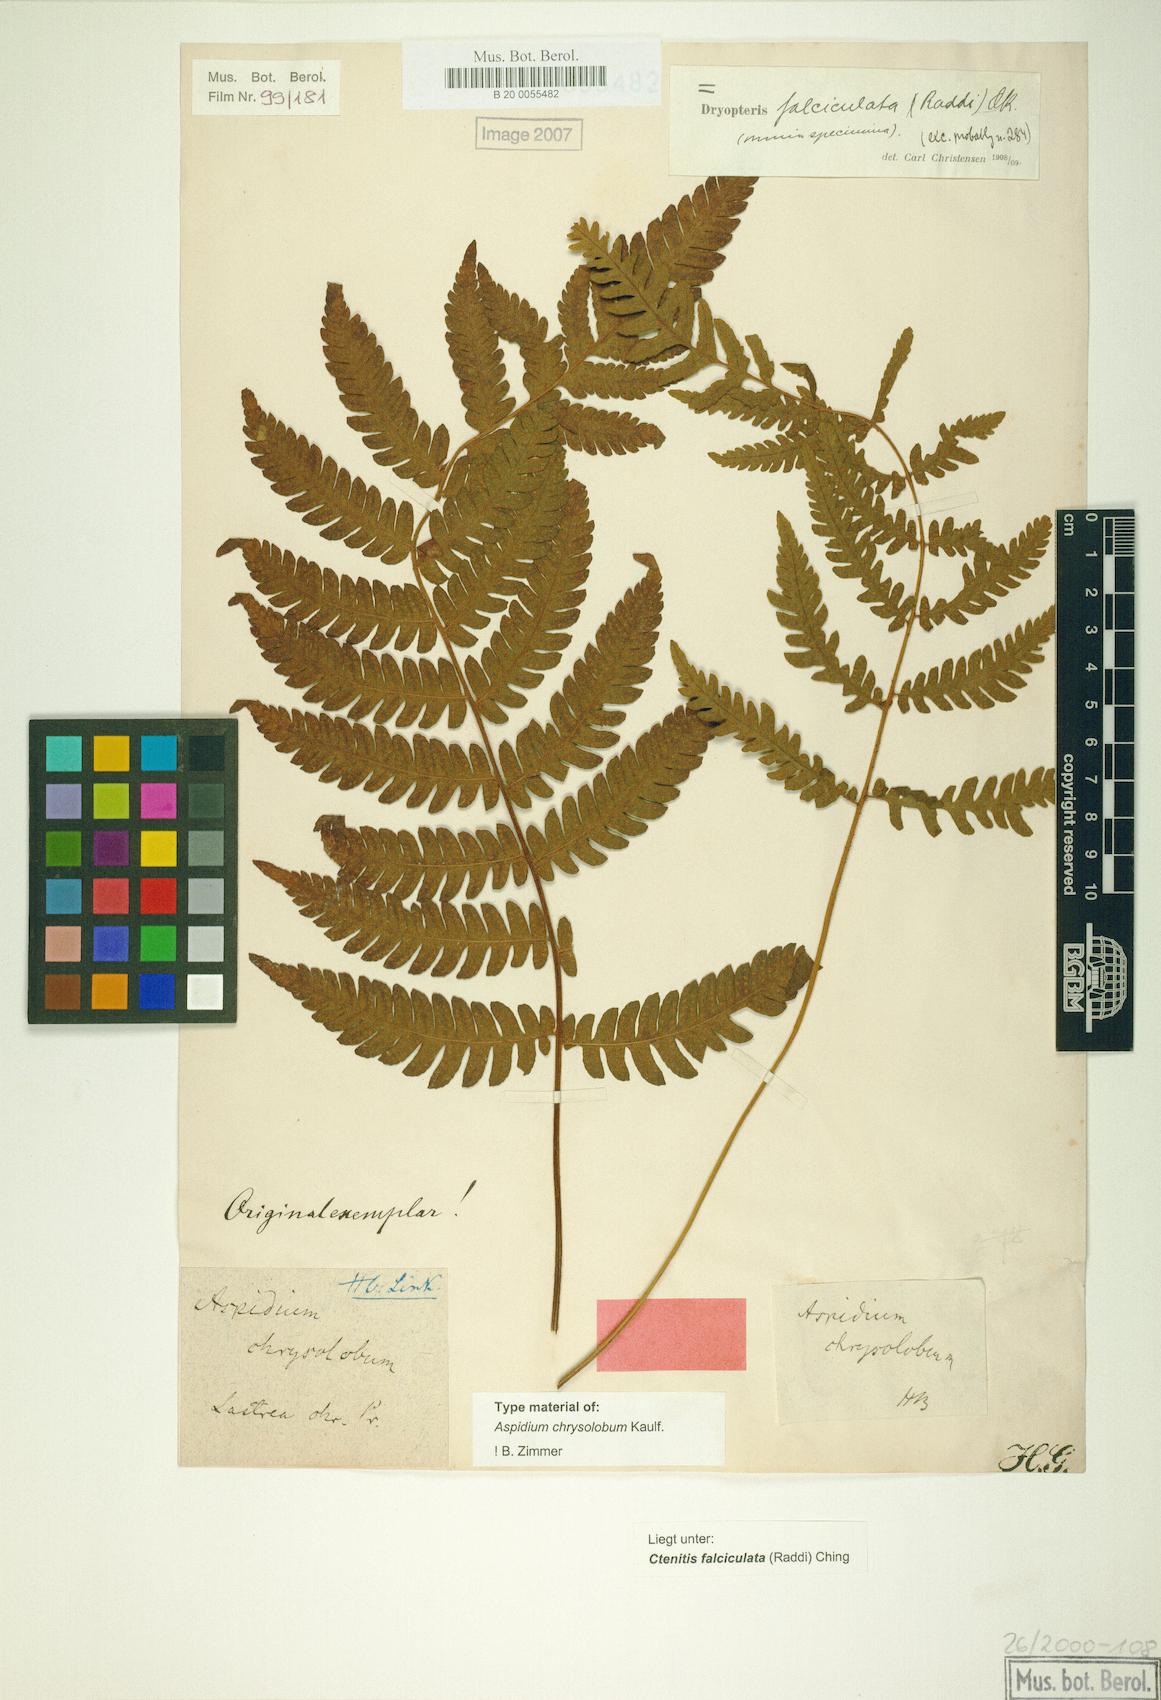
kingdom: Plantae
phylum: Tracheophyta
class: Polypodiopsida
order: Polypodiales
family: Dryopteridaceae
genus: Ctenitis
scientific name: Ctenitis falciculata
